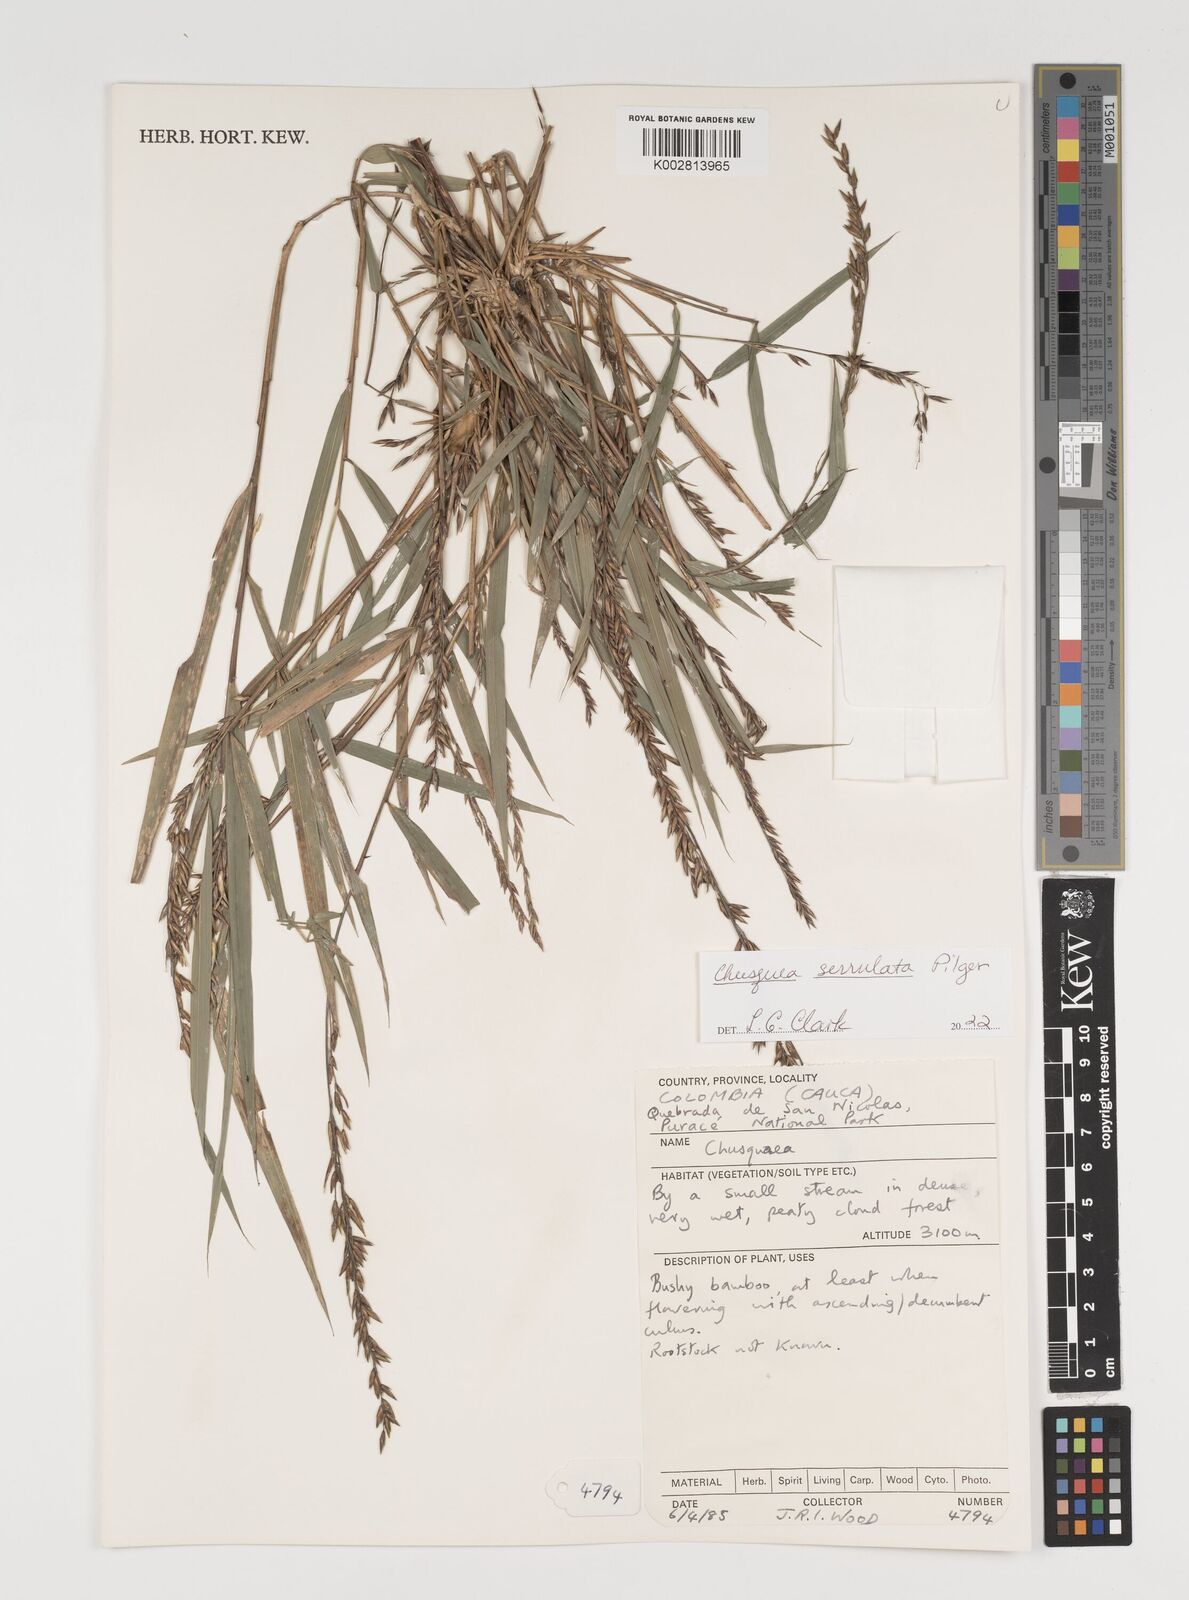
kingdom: Plantae
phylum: Tracheophyta
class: Liliopsida
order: Poales
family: Poaceae
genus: Chusquea
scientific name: Chusquea amistadensis
